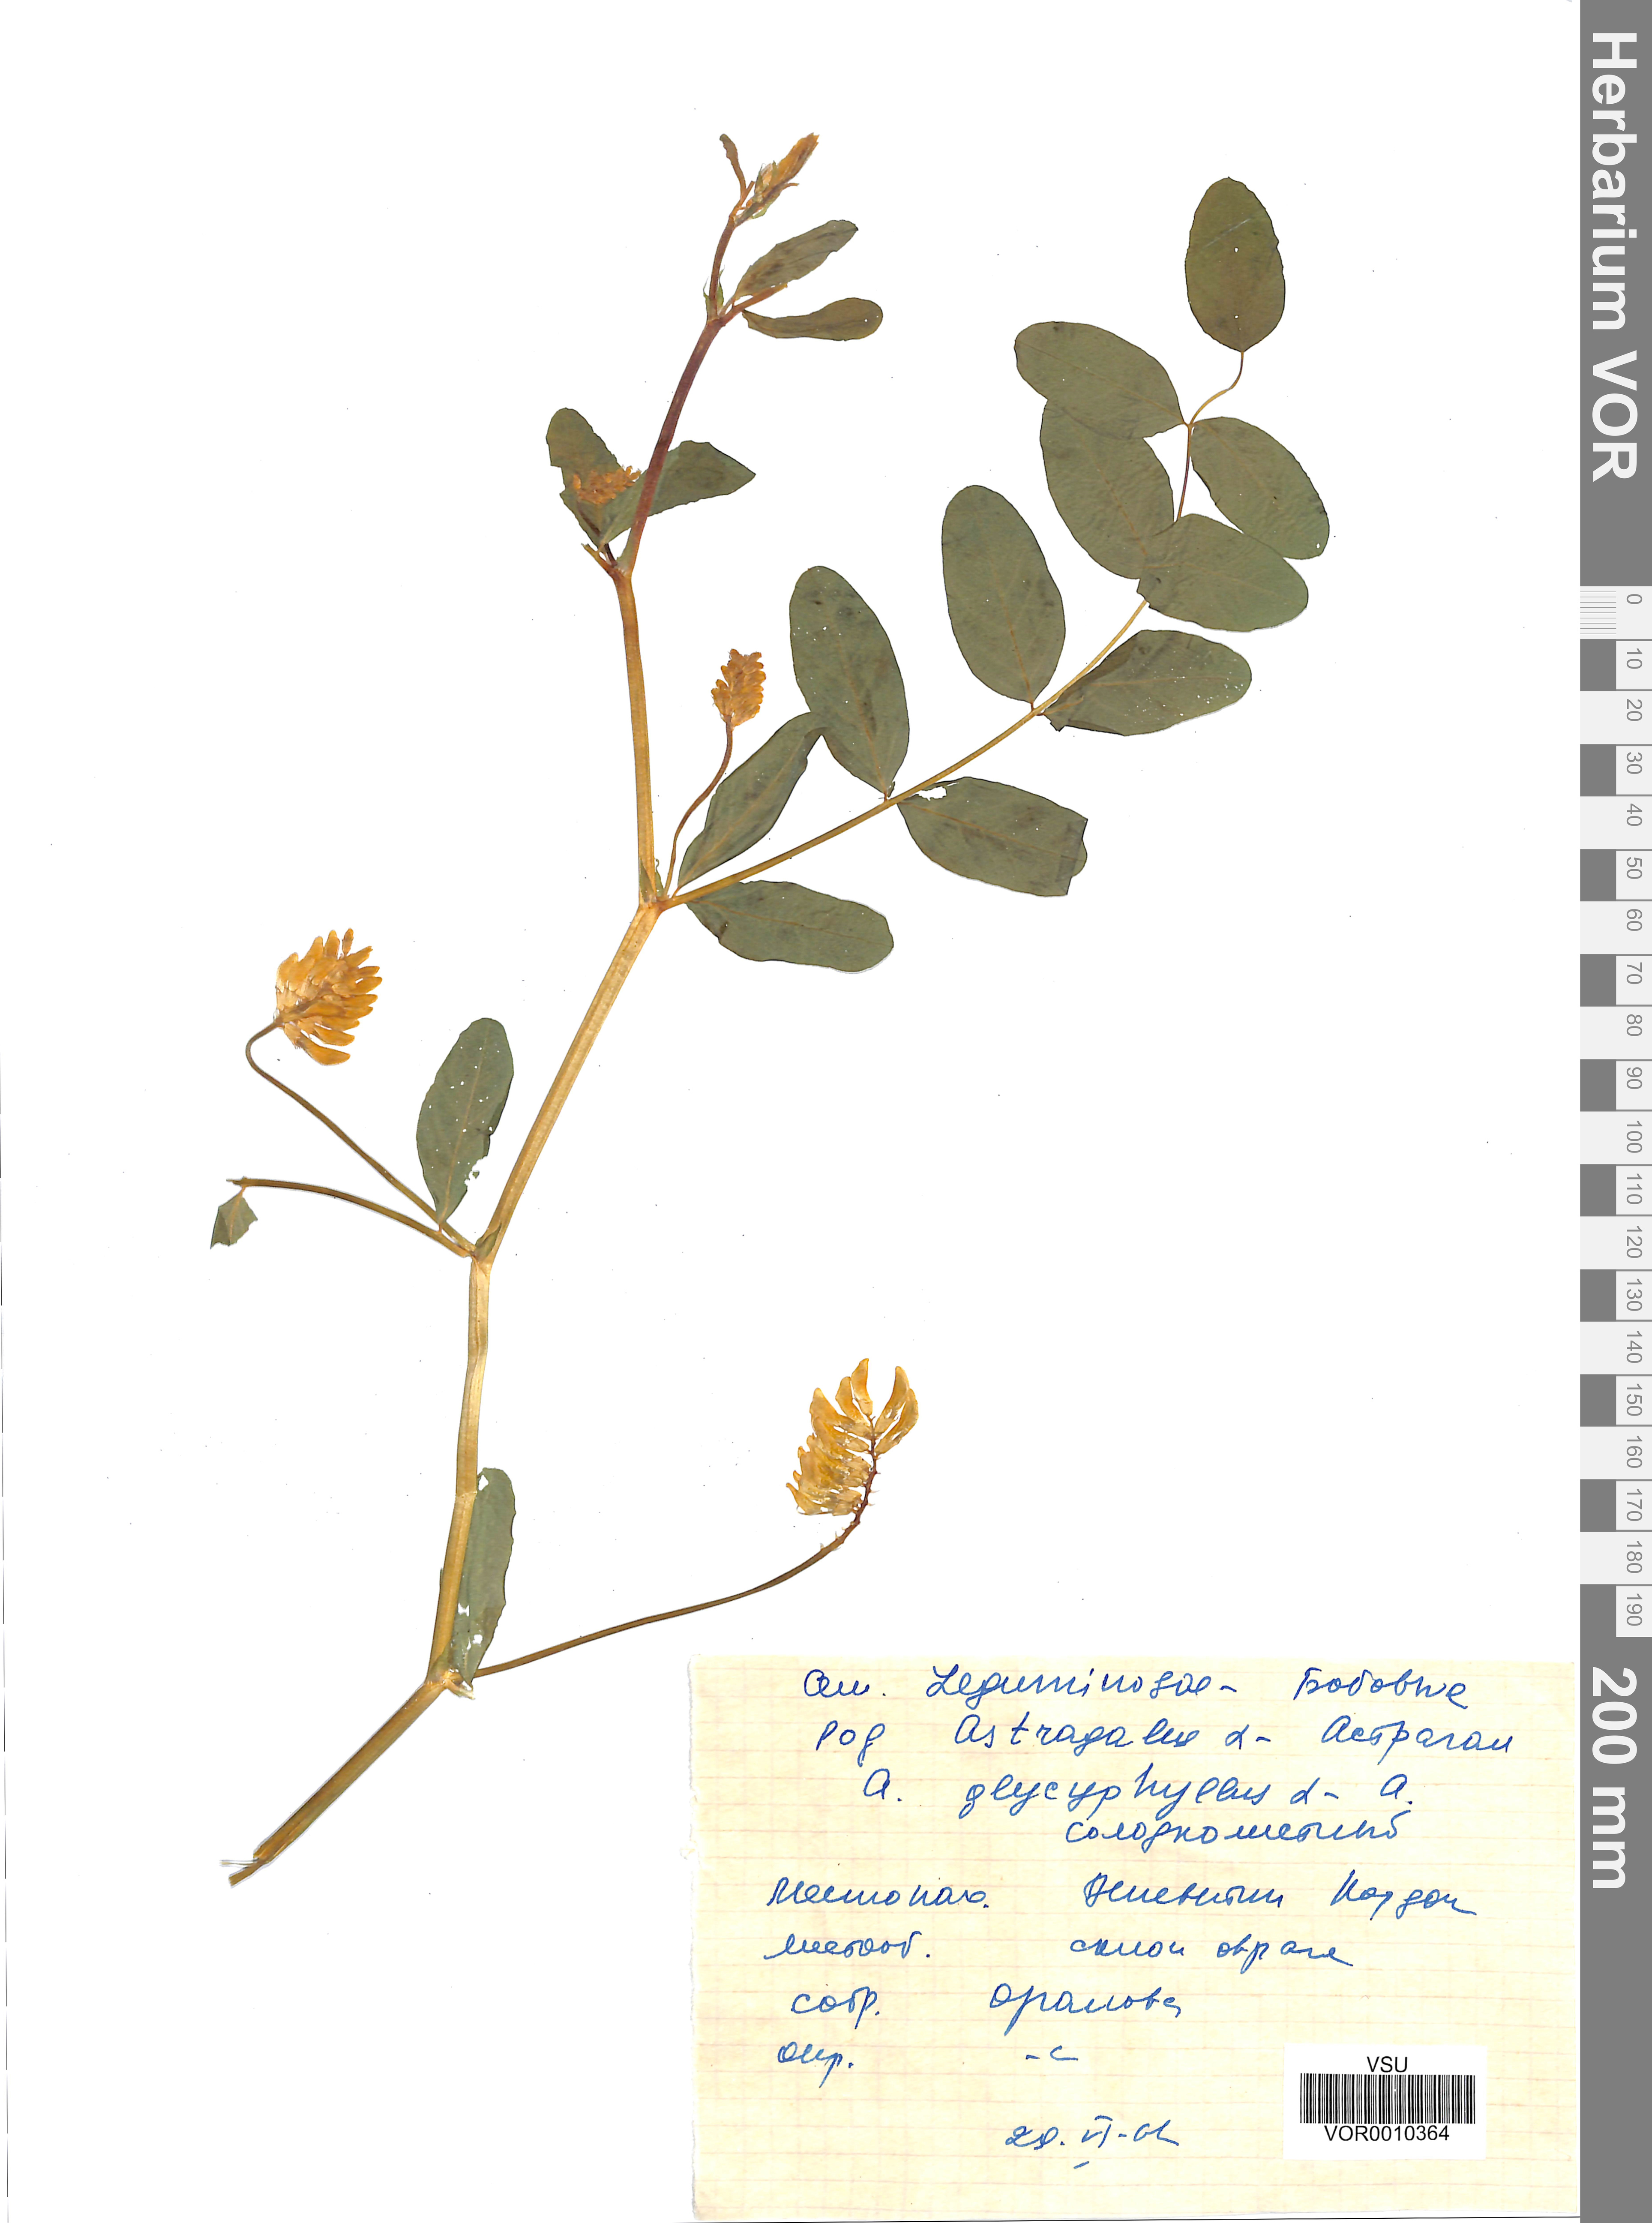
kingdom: Plantae
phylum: Tracheophyta
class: Magnoliopsida
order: Fabales
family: Fabaceae
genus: Astragalus
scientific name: Astragalus glycyphyllos
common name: Wild liquorice
